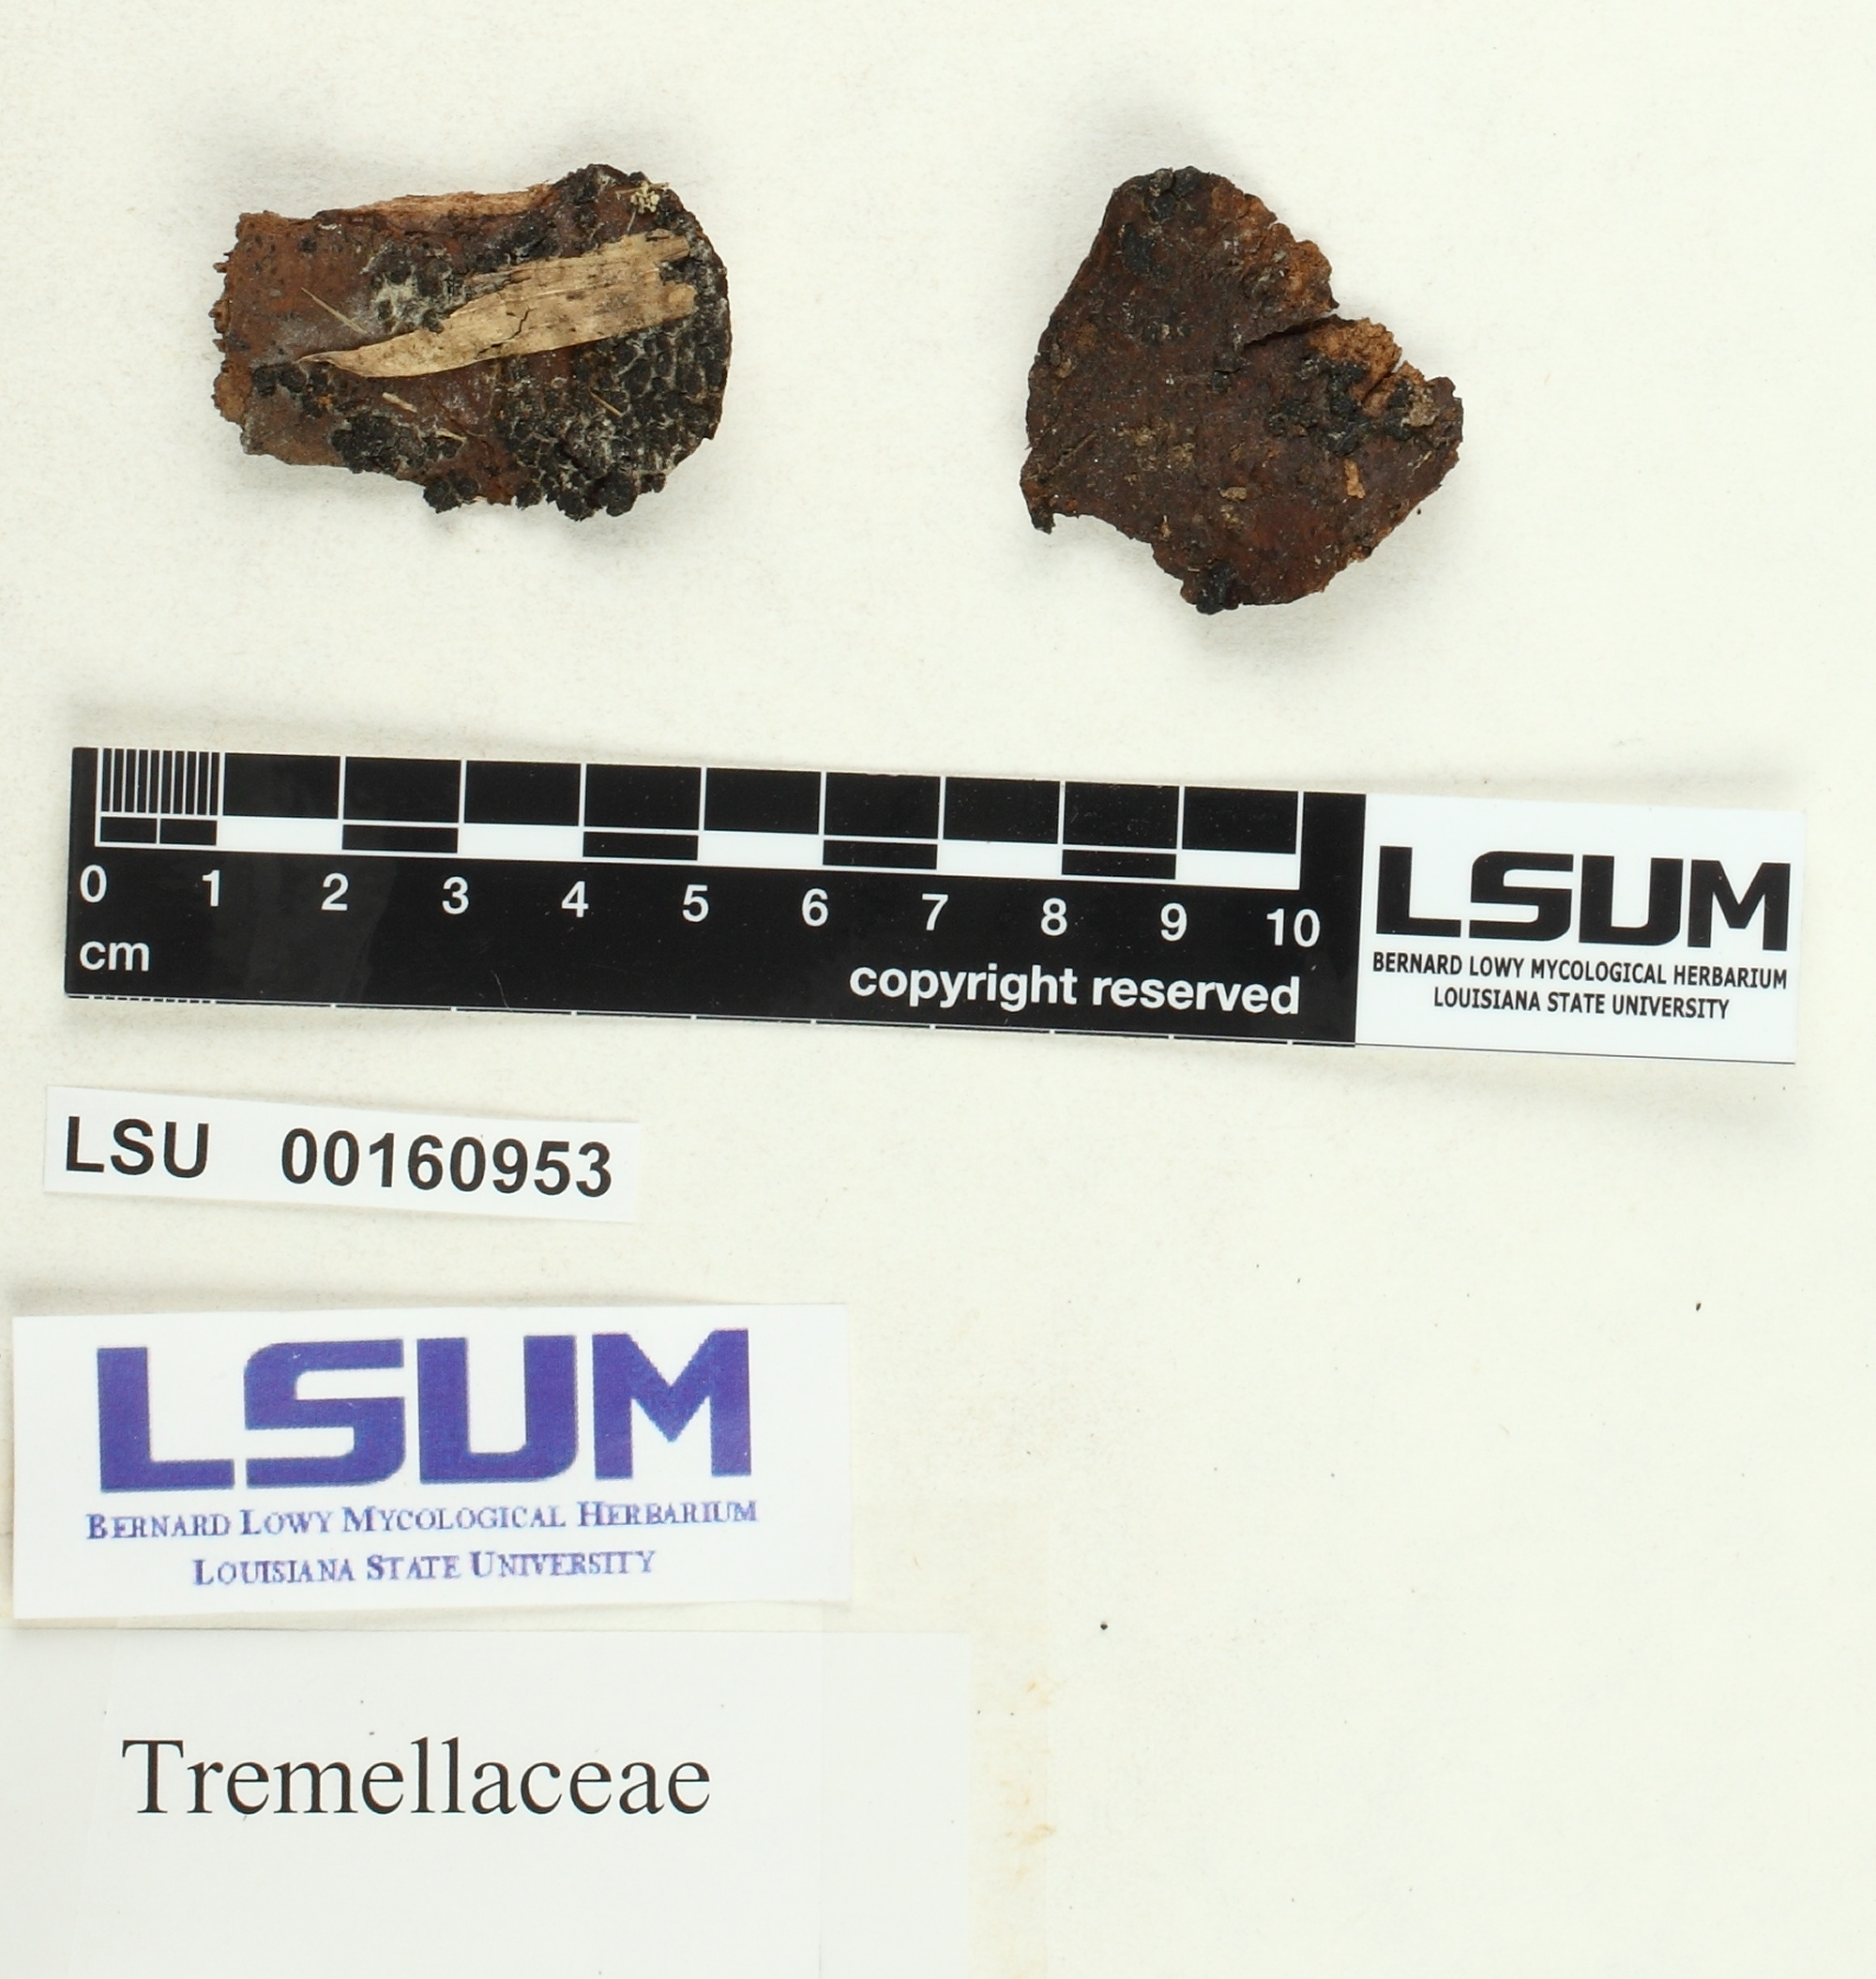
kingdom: Fungi
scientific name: Fungi
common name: Fungi
